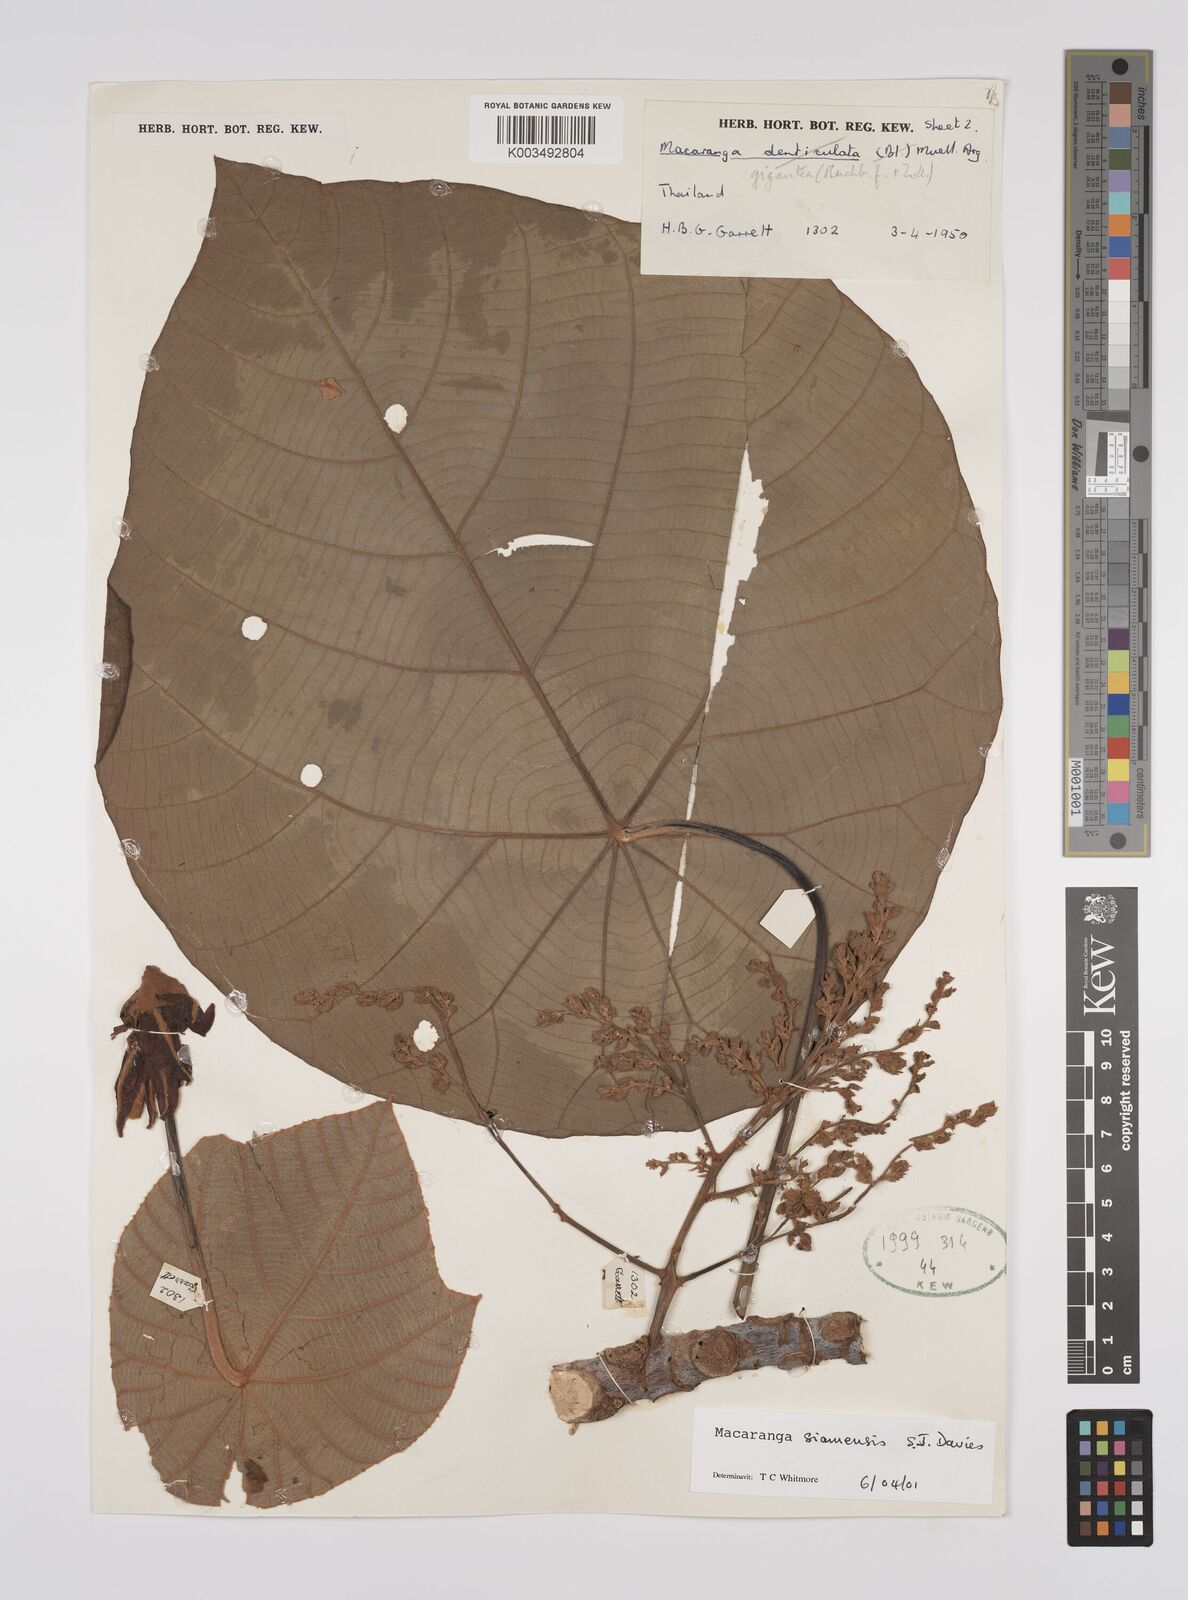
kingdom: Plantae
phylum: Tracheophyta
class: Magnoliopsida
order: Malpighiales
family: Euphorbiaceae
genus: Macaranga
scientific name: Macaranga siamensis
